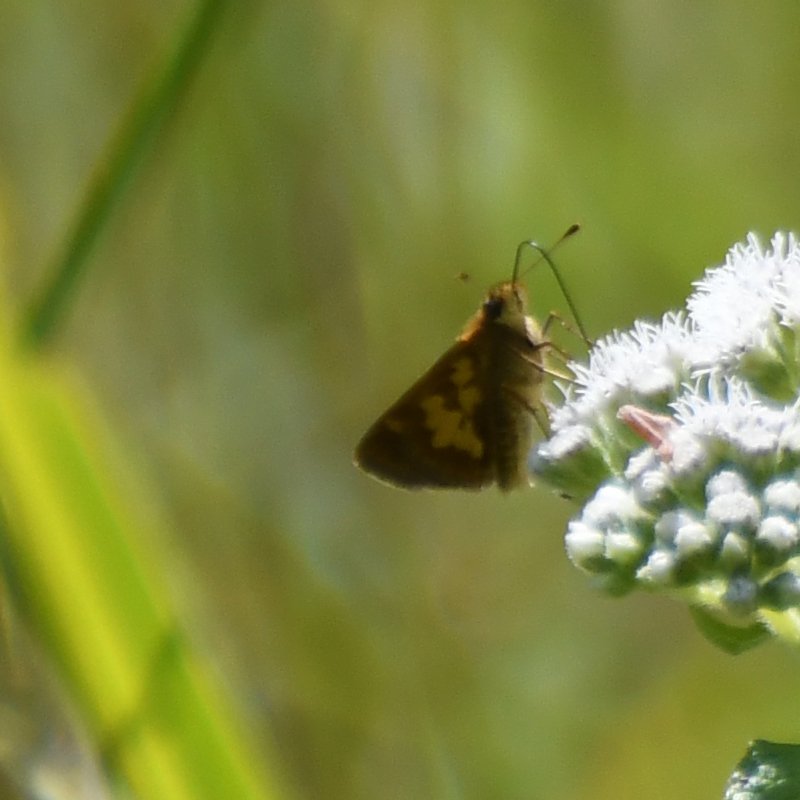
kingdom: Animalia
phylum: Arthropoda
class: Insecta
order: Lepidoptera
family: Hesperiidae
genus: Polites
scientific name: Polites coras
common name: Peck's Skipper
